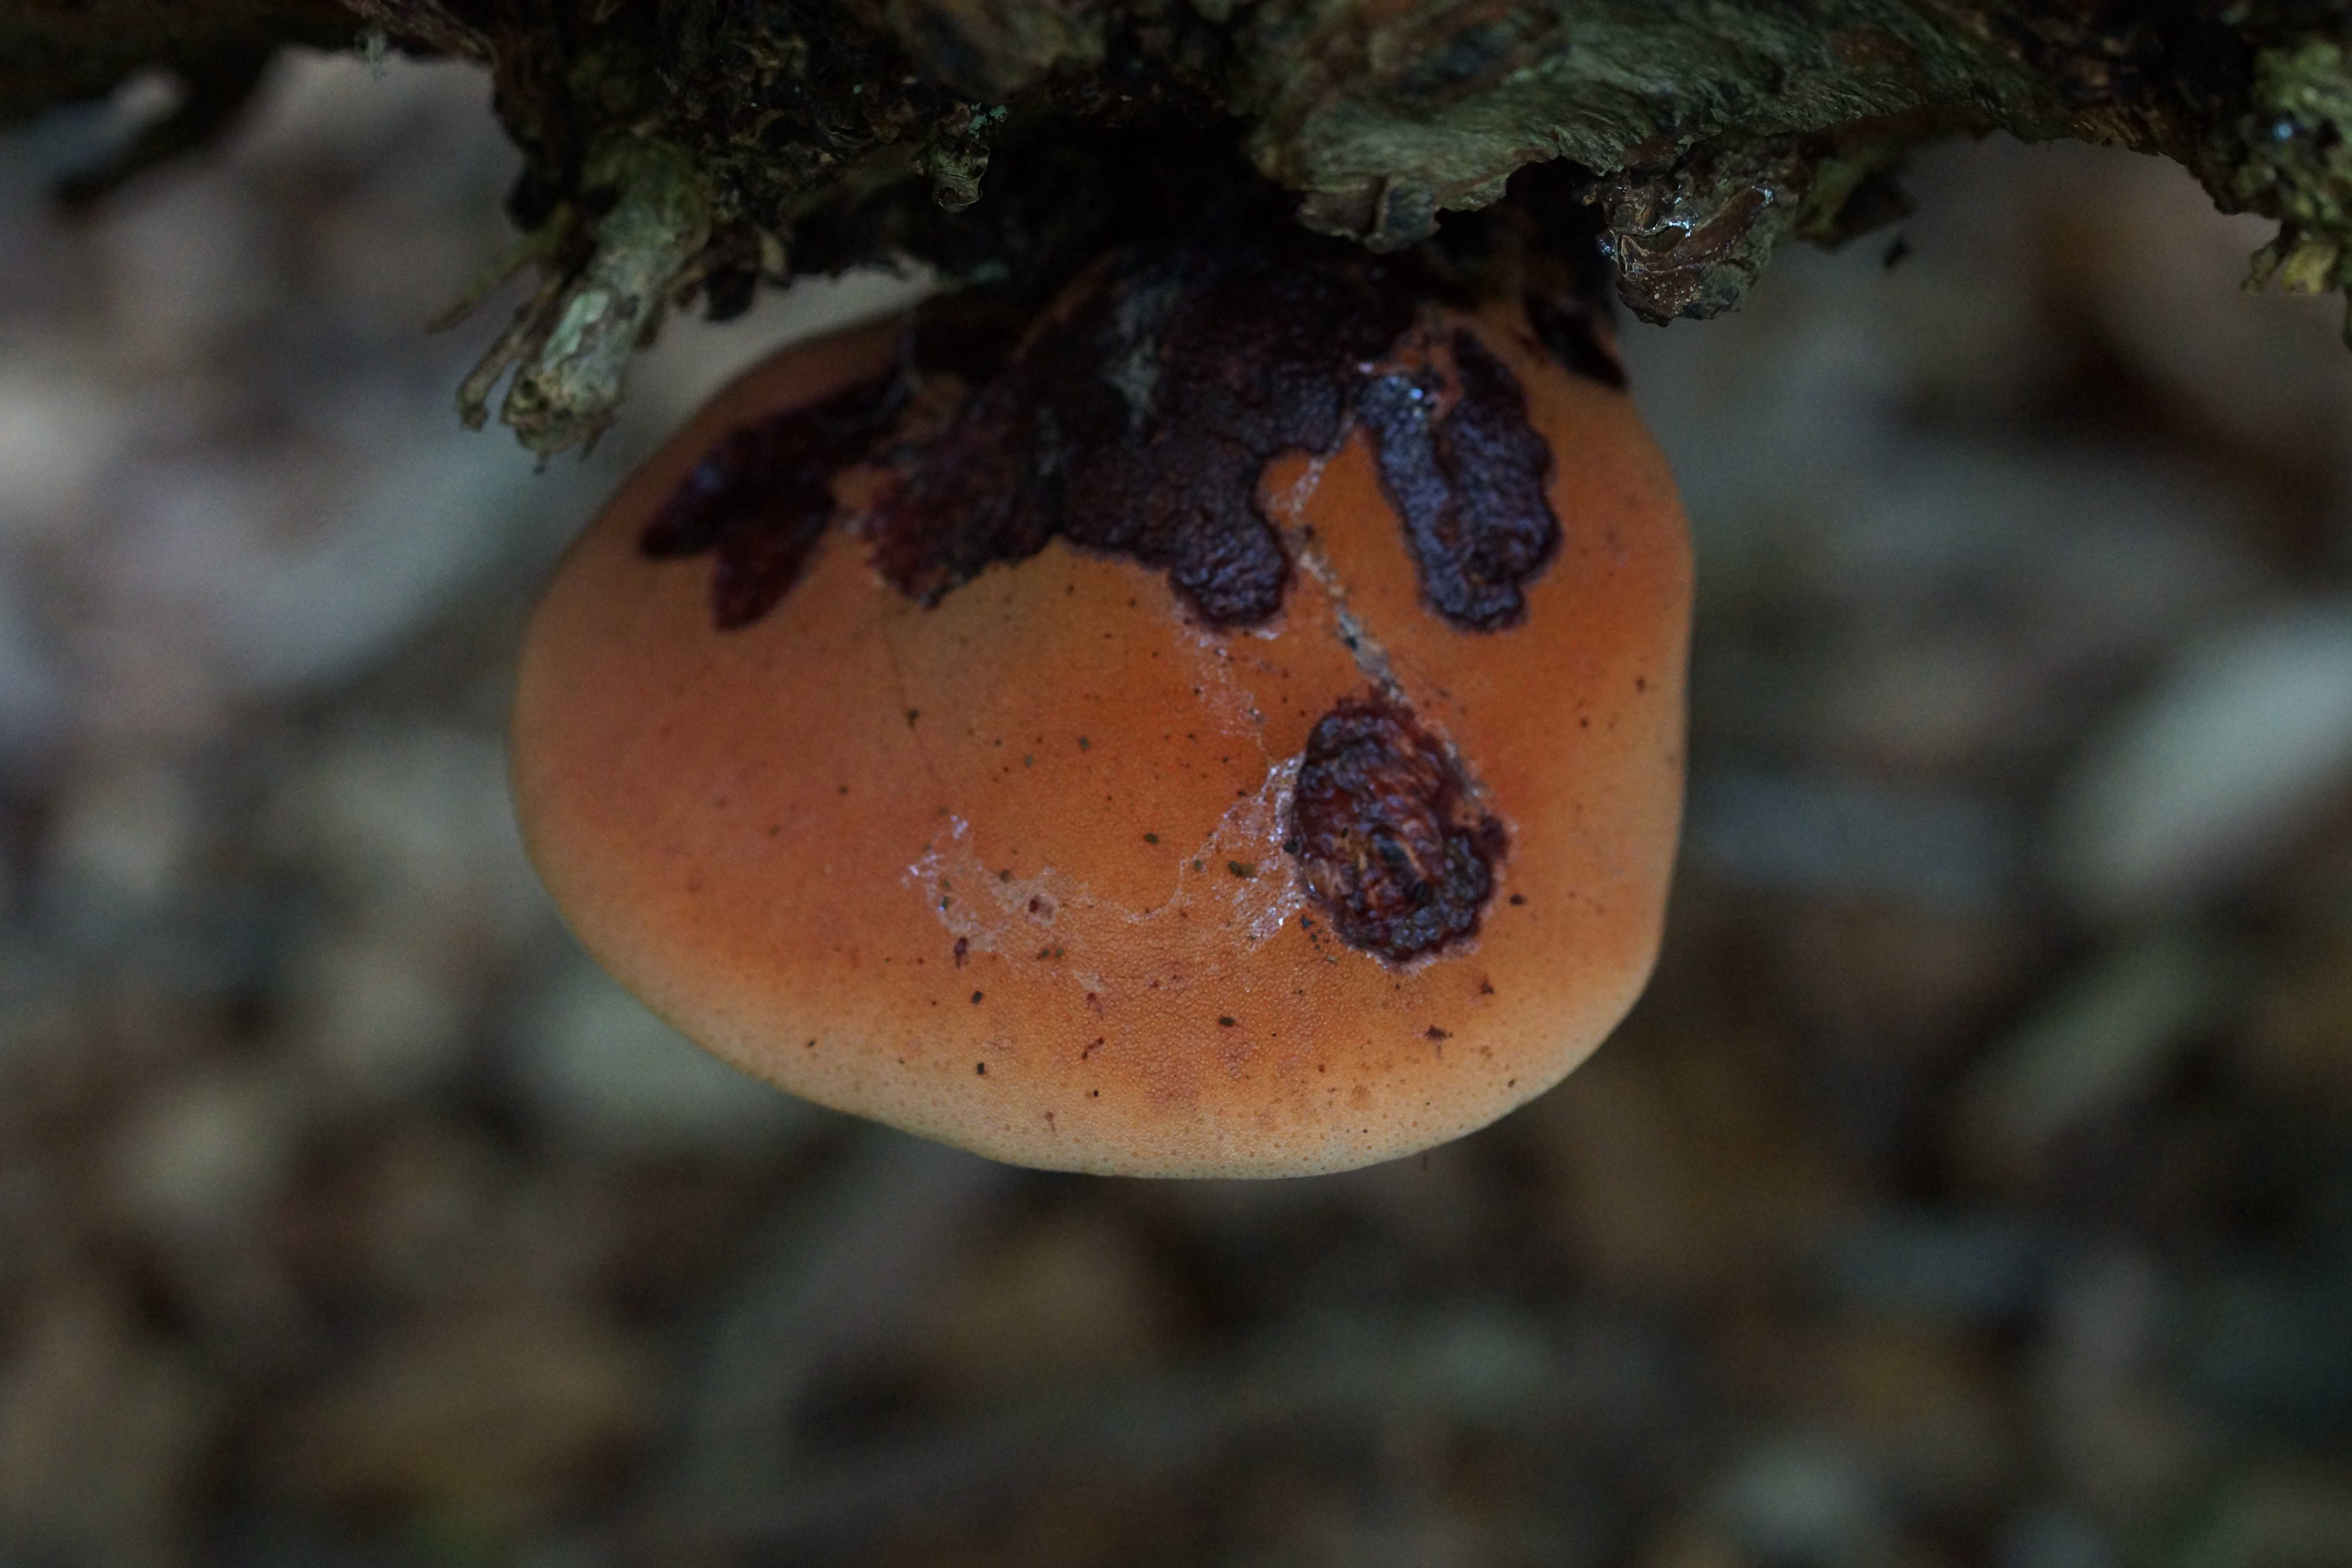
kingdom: Fungi
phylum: Basidiomycota
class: Agaricomycetes
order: Agaricales
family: Fistulinaceae
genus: Fistulina
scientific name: Fistulina hepatica
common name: oksetunge
